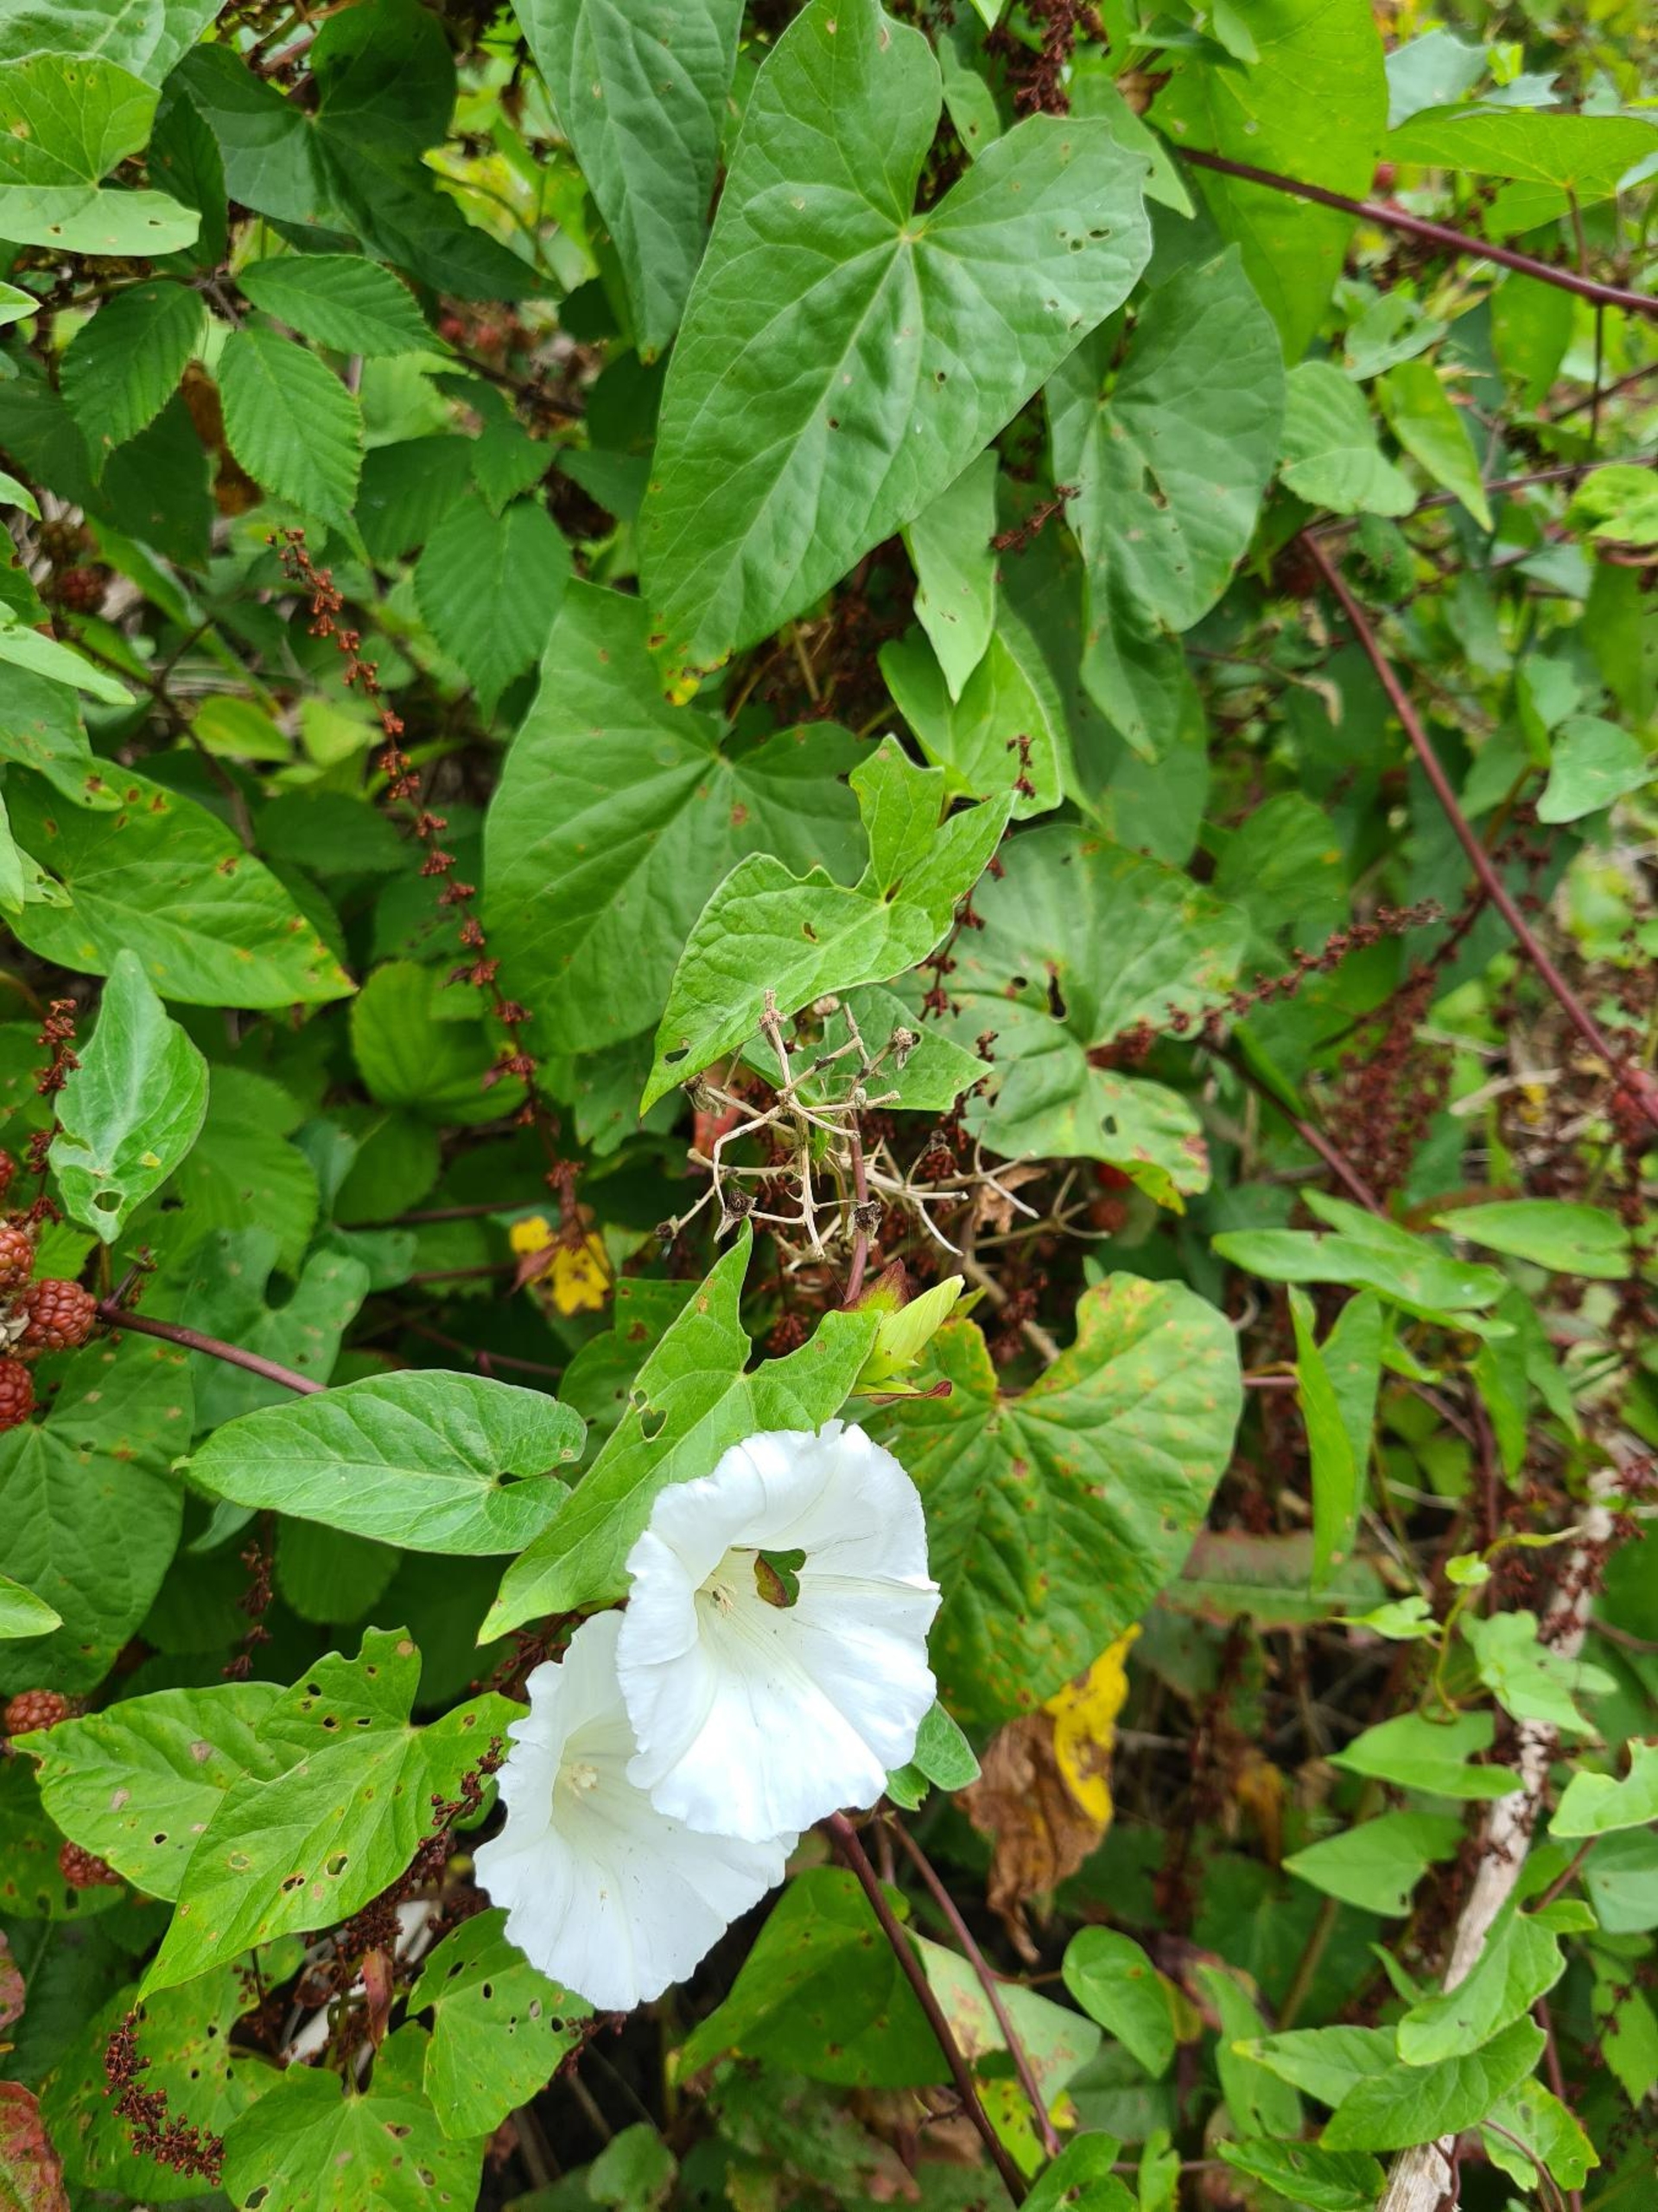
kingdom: Plantae
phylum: Tracheophyta
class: Magnoliopsida
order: Solanales
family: Convolvulaceae
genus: Calystegia
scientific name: Calystegia sepium
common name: Gærde-snerle
